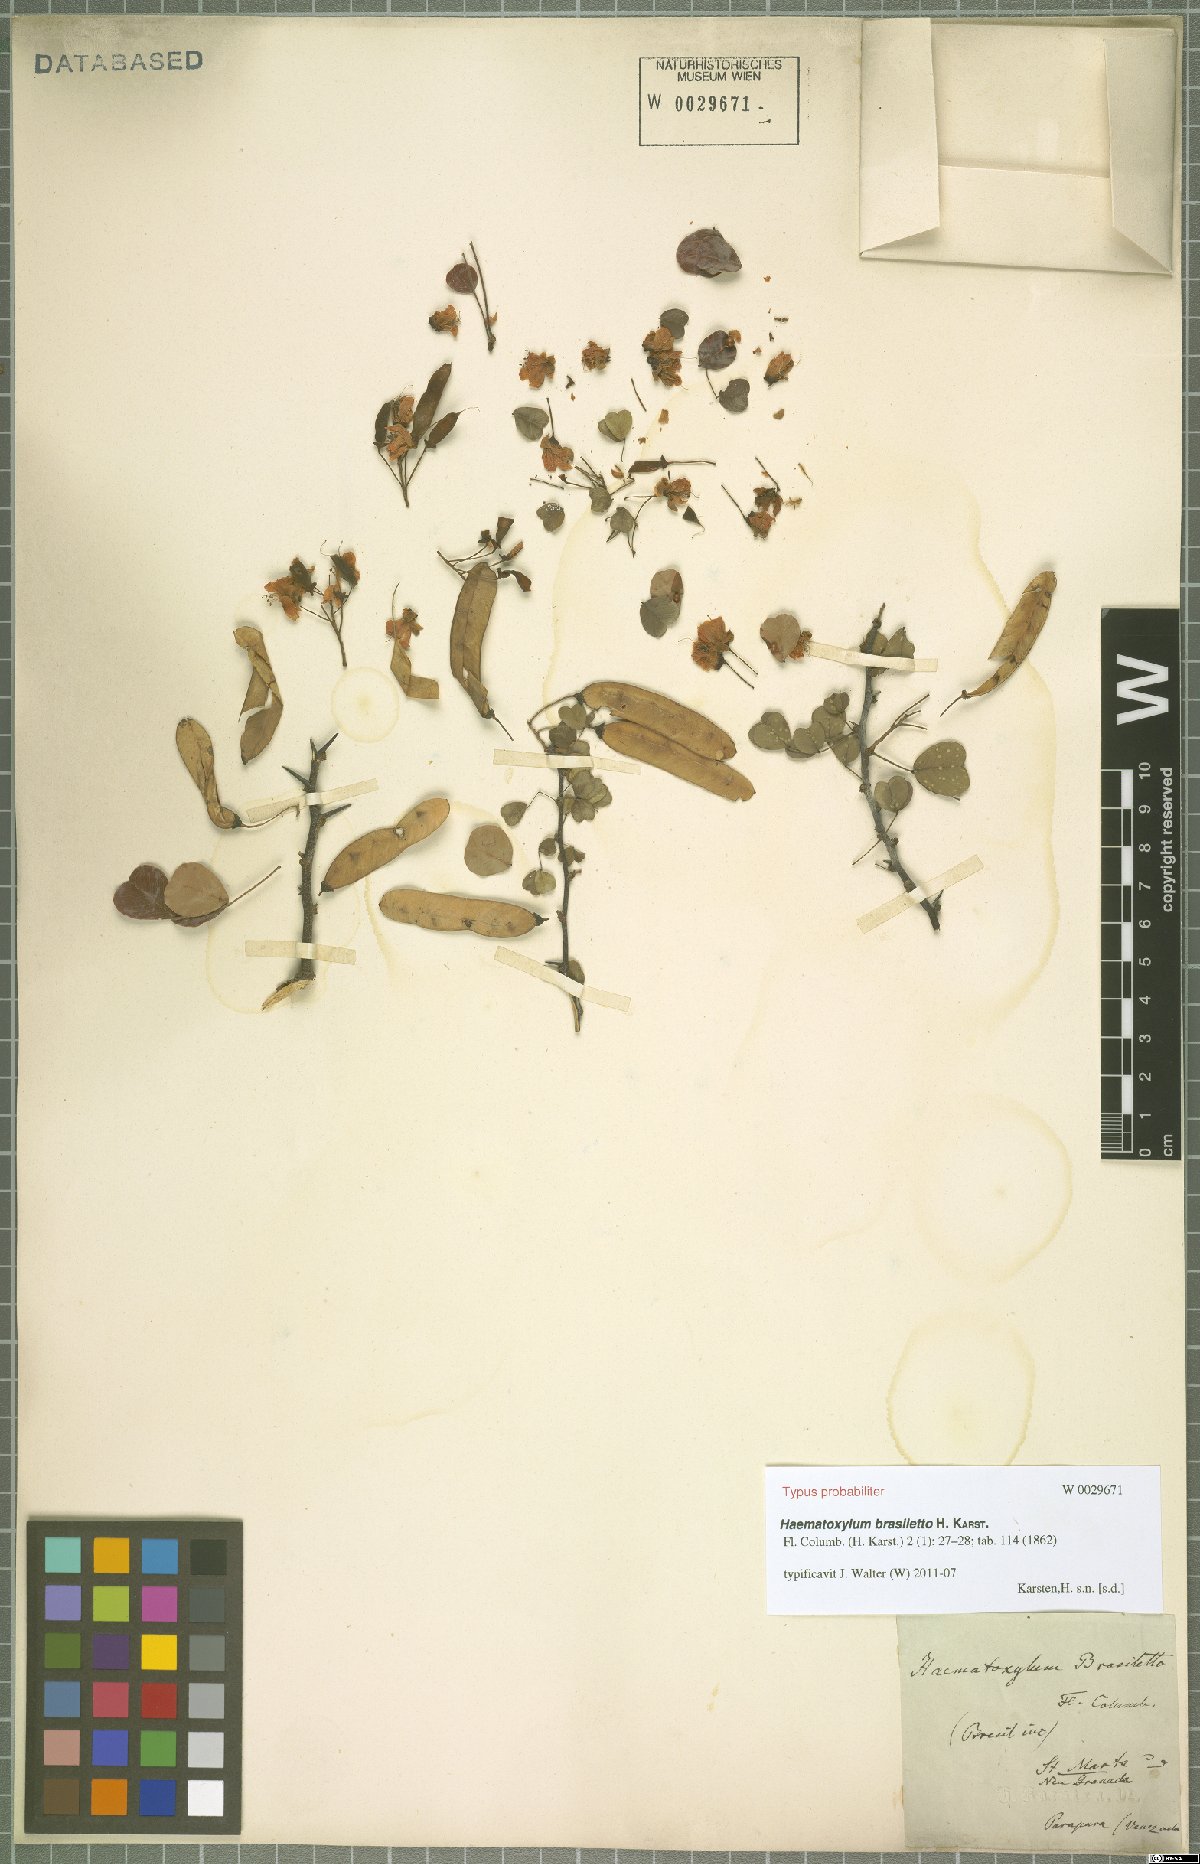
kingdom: Plantae
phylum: Tracheophyta
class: Magnoliopsida
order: Fabales
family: Fabaceae
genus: Haematoxylum
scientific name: Haematoxylum brasiletto
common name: Peachwood
